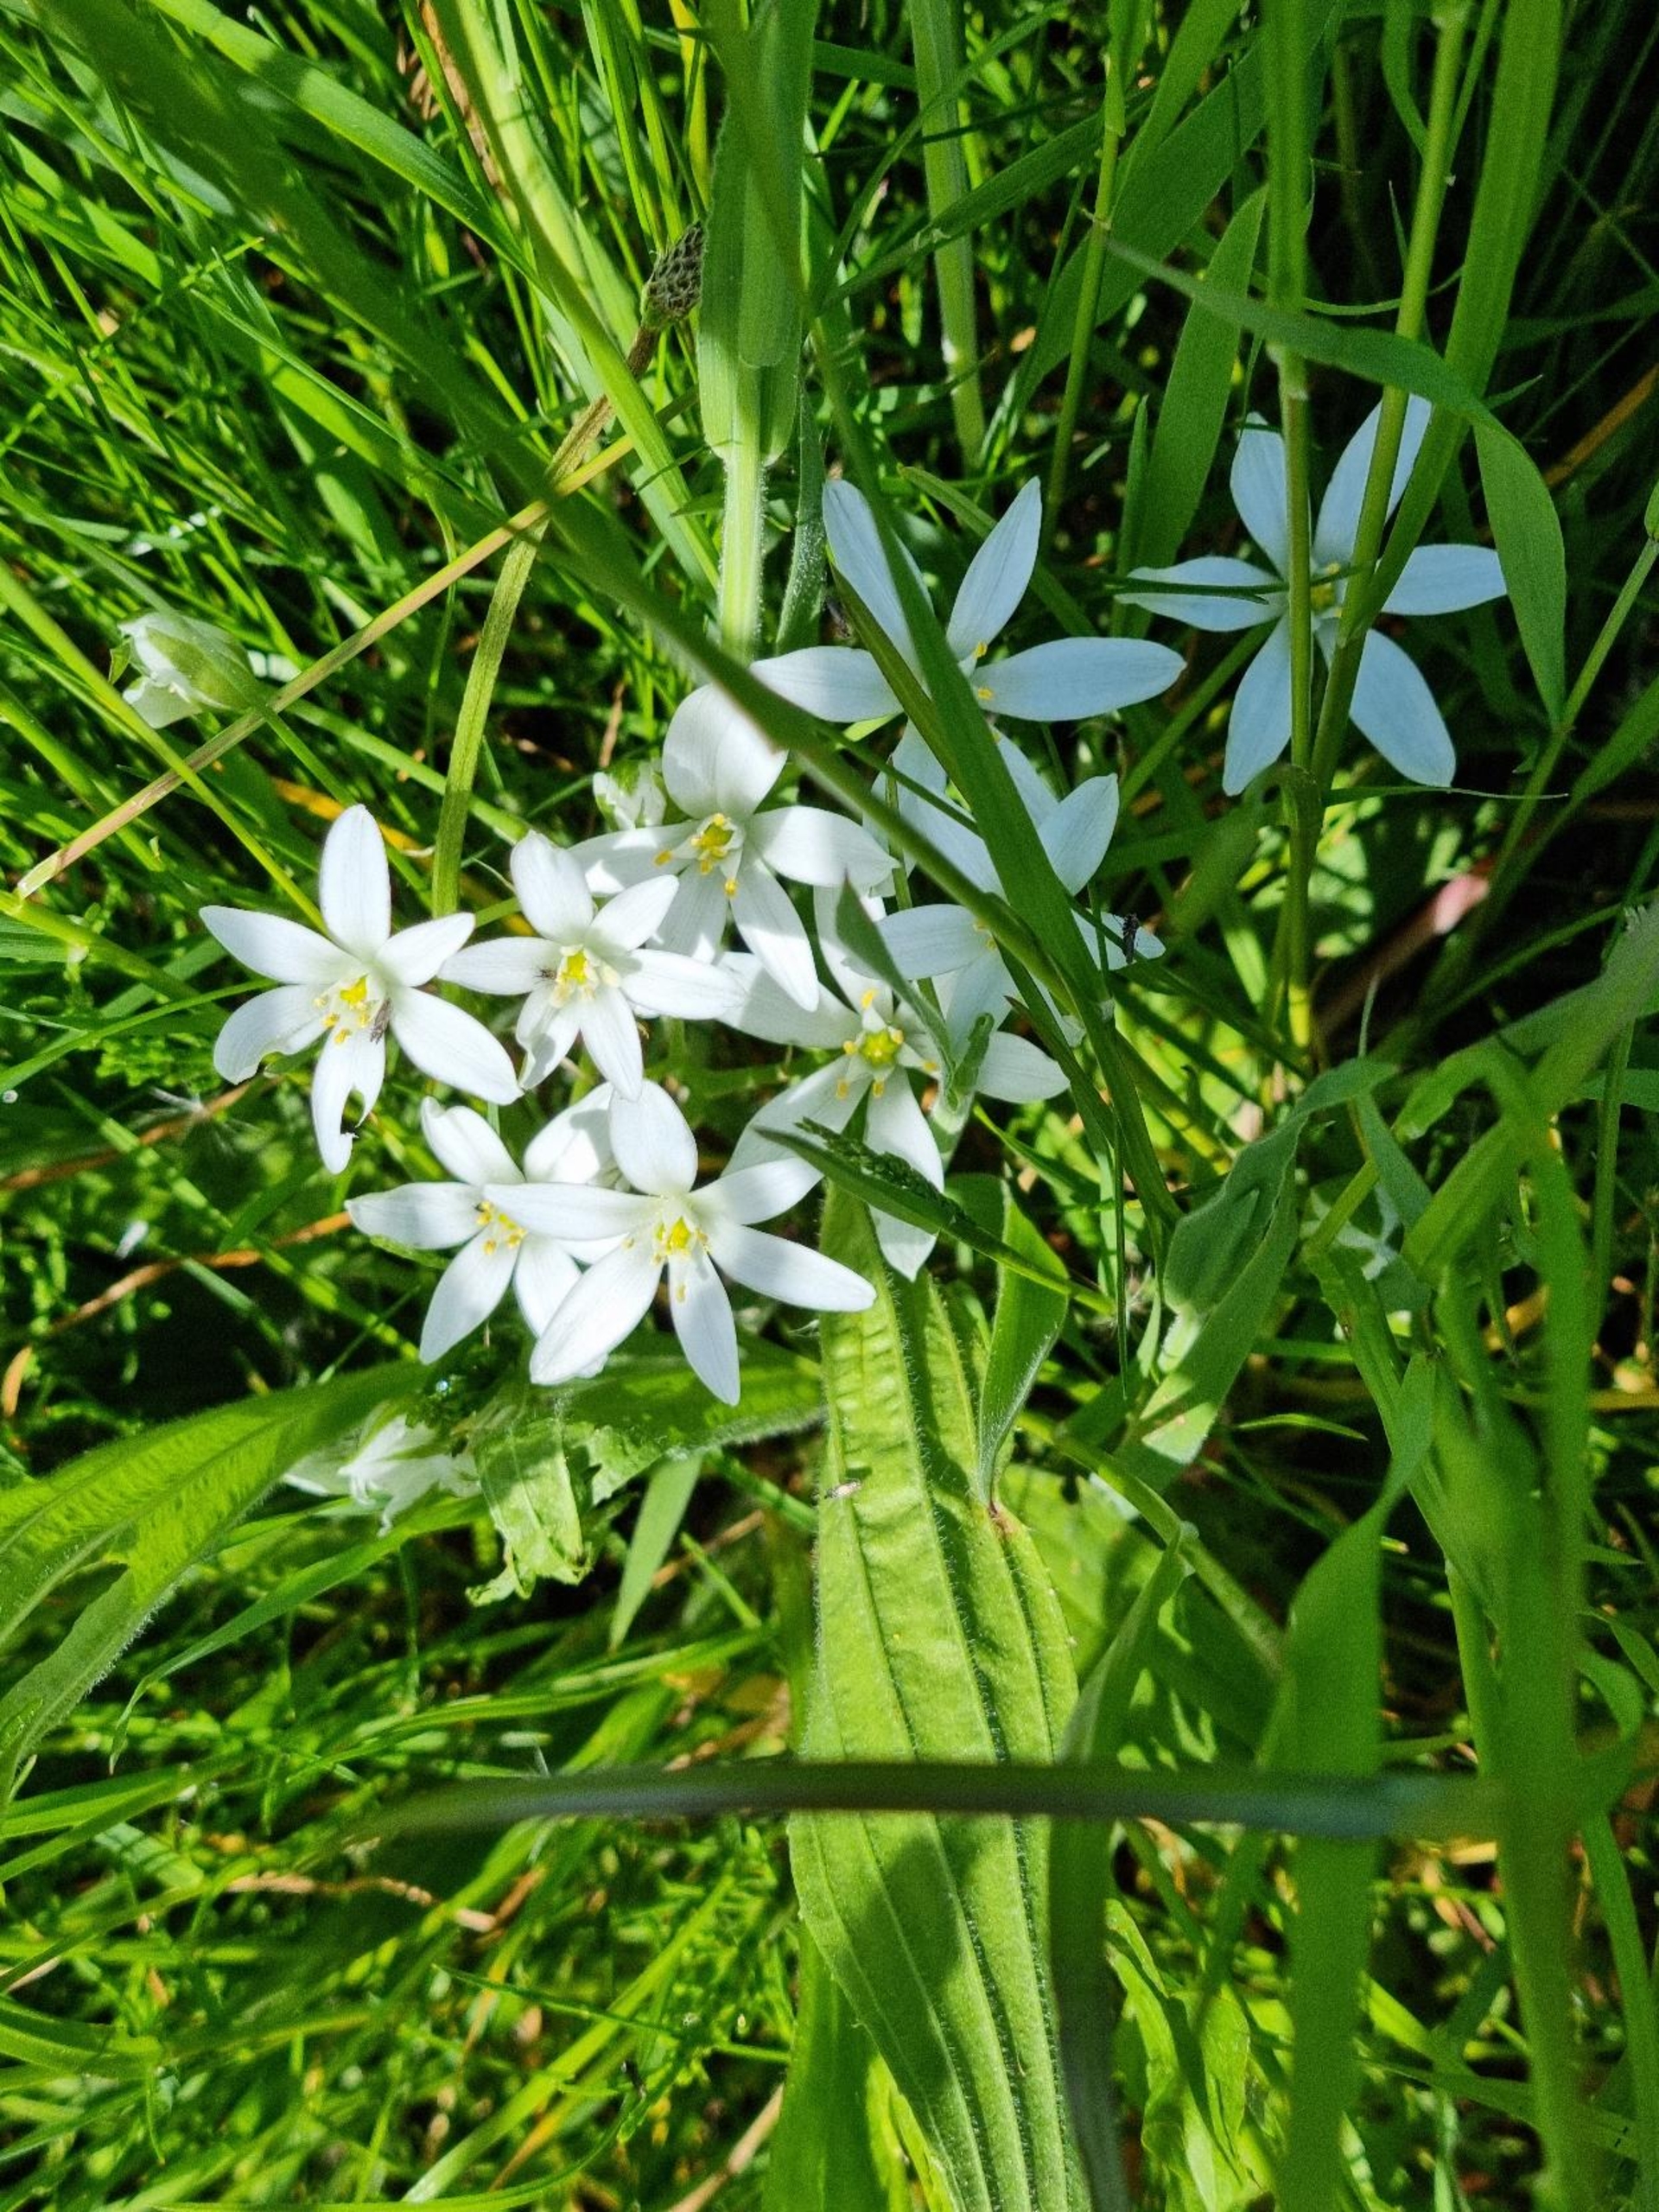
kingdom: Plantae
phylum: Tracheophyta
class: Liliopsida
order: Asparagales
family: Asparagaceae
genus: Ornithogalum
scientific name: Ornithogalum umbellatum
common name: Kost-fuglemælk
